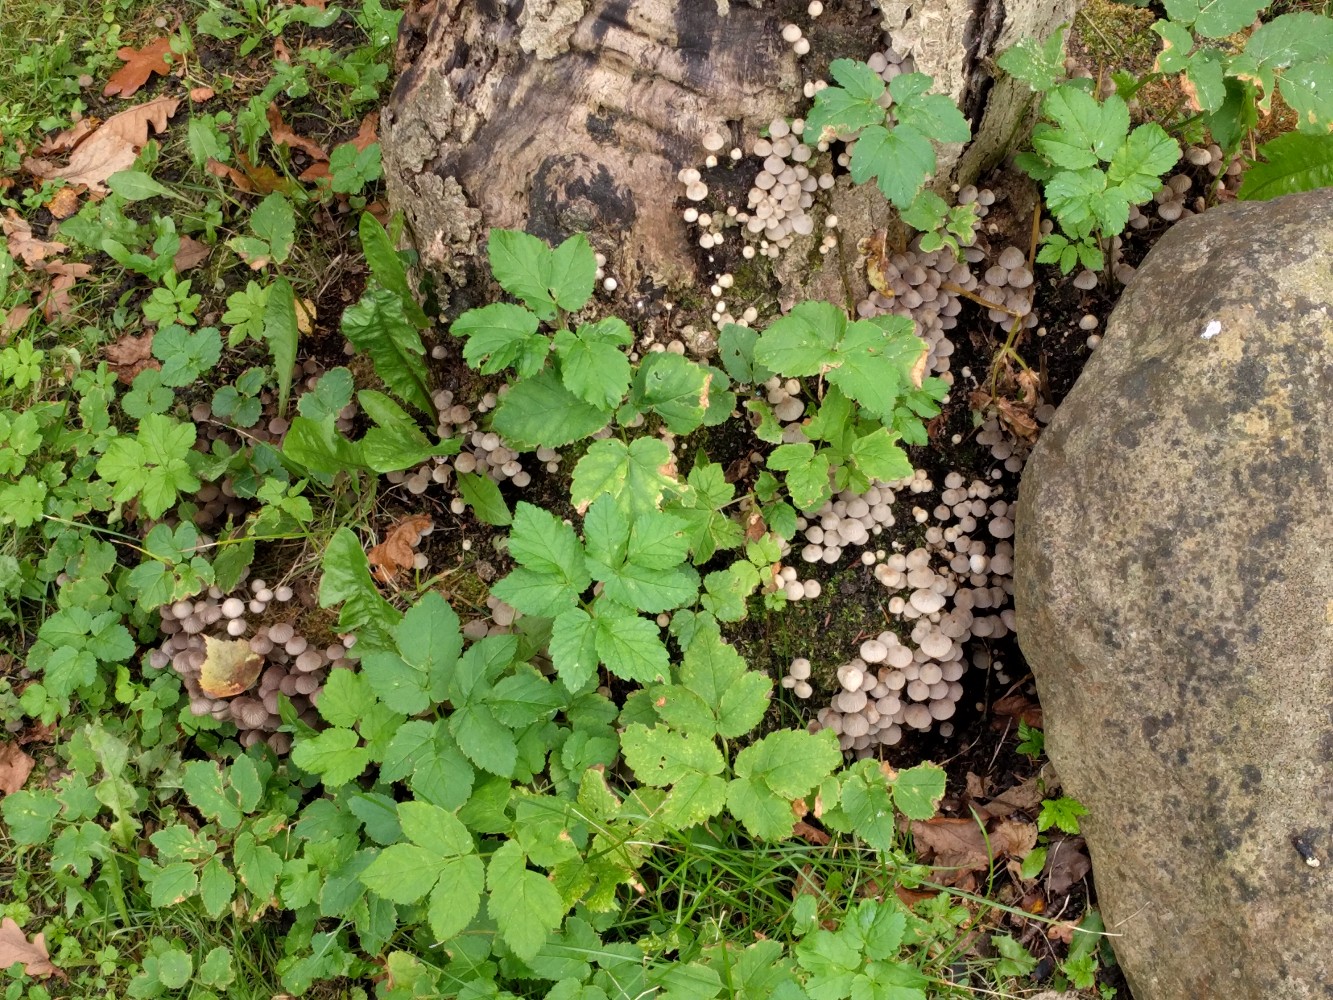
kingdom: Fungi
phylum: Basidiomycota
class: Agaricomycetes
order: Agaricales
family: Psathyrellaceae
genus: Coprinellus
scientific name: Coprinellus disseminatus
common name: bredsået blækhat
